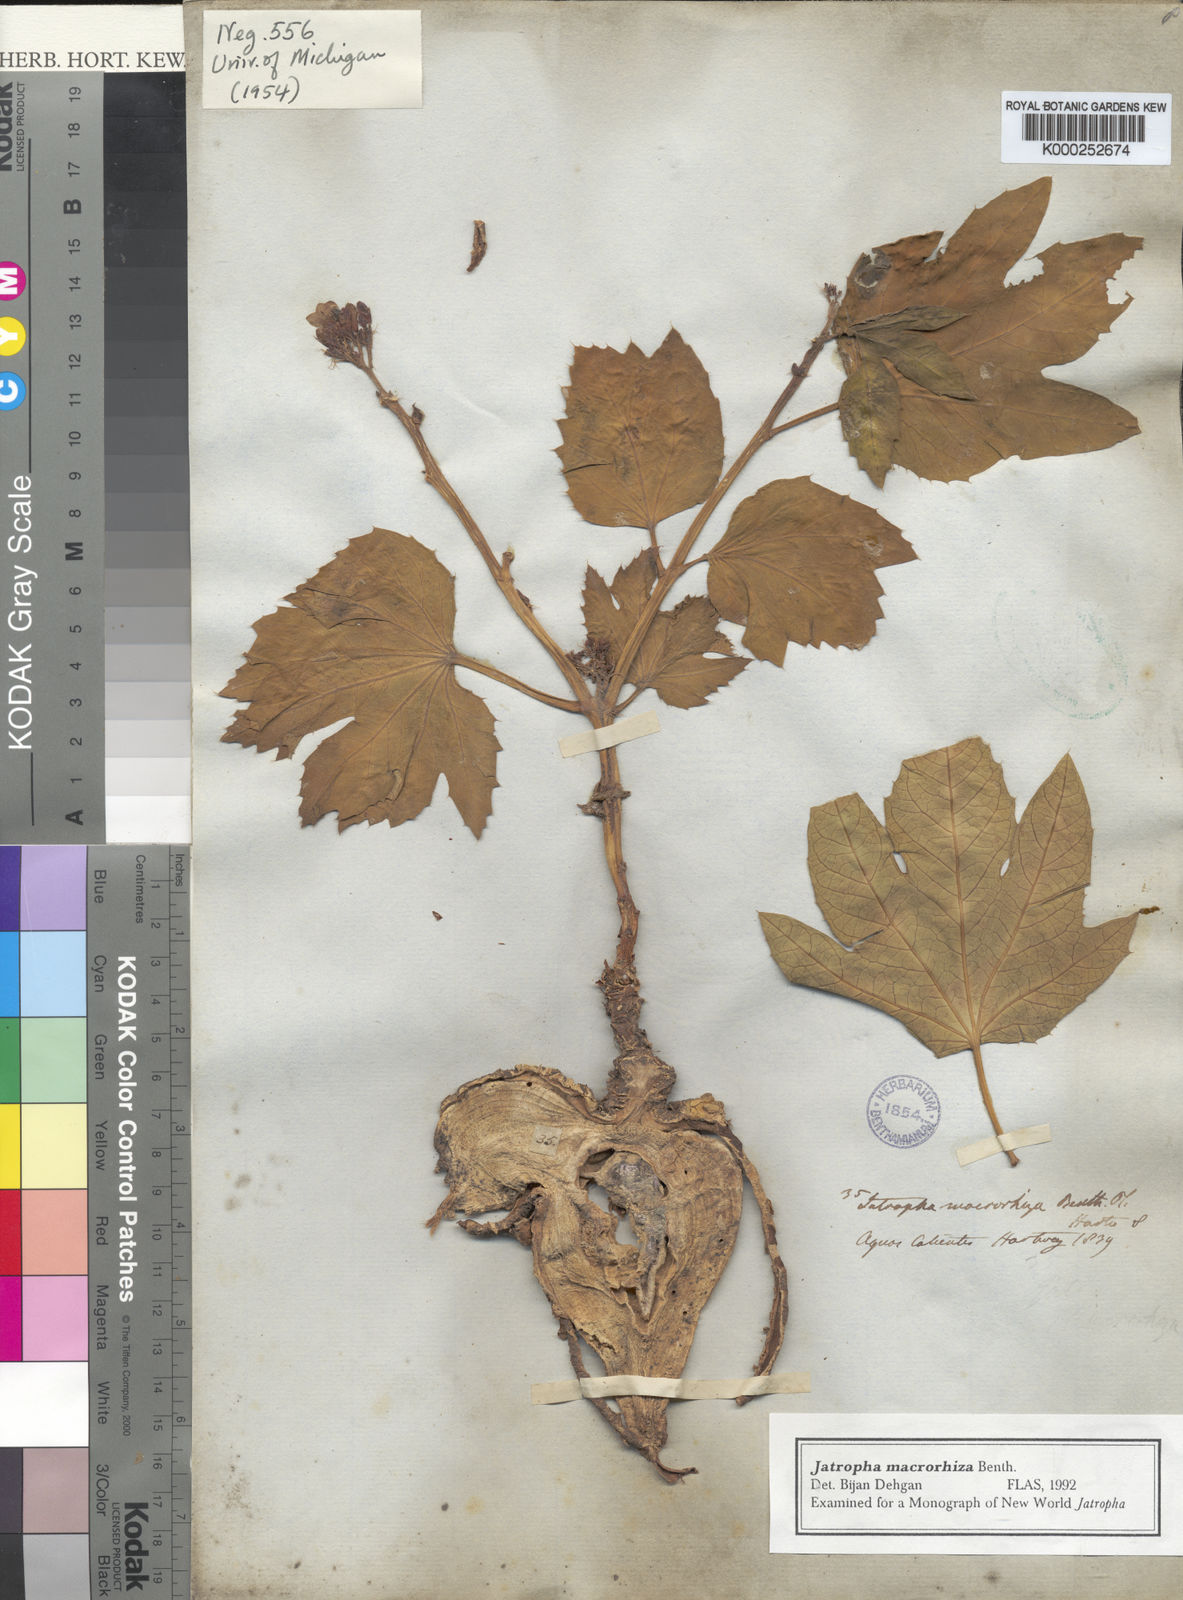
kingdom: Plantae
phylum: Tracheophyta
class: Magnoliopsida
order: Malpighiales
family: Euphorbiaceae
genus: Jatropha
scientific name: Jatropha macrorhiza
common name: Ragged nettlespurge
